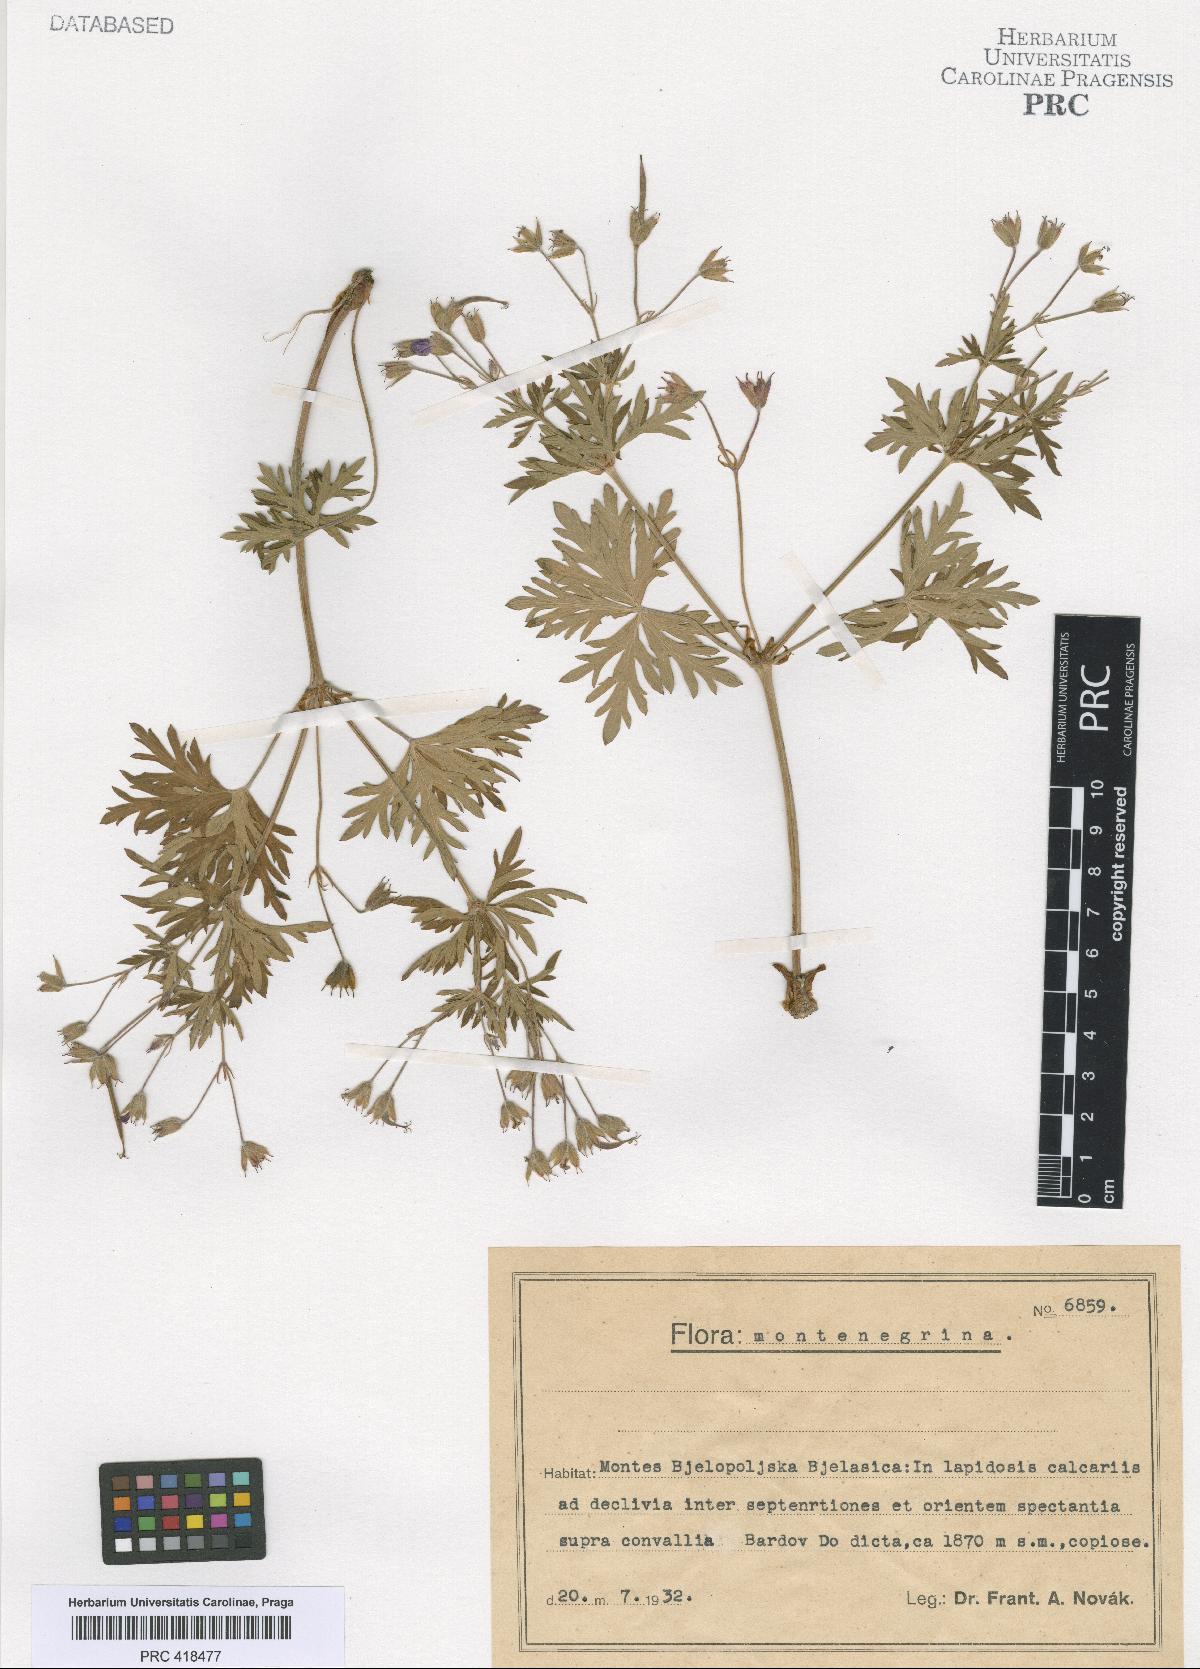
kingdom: Plantae
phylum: Tracheophyta
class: Magnoliopsida
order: Geraniales
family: Geraniaceae
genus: Geranium
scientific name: Geranium caeruleatum
